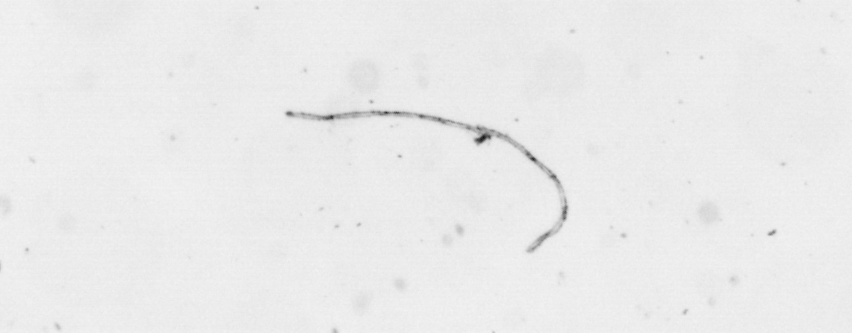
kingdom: Chromista
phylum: Ochrophyta
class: Bacillariophyceae
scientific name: Bacillariophyceae
